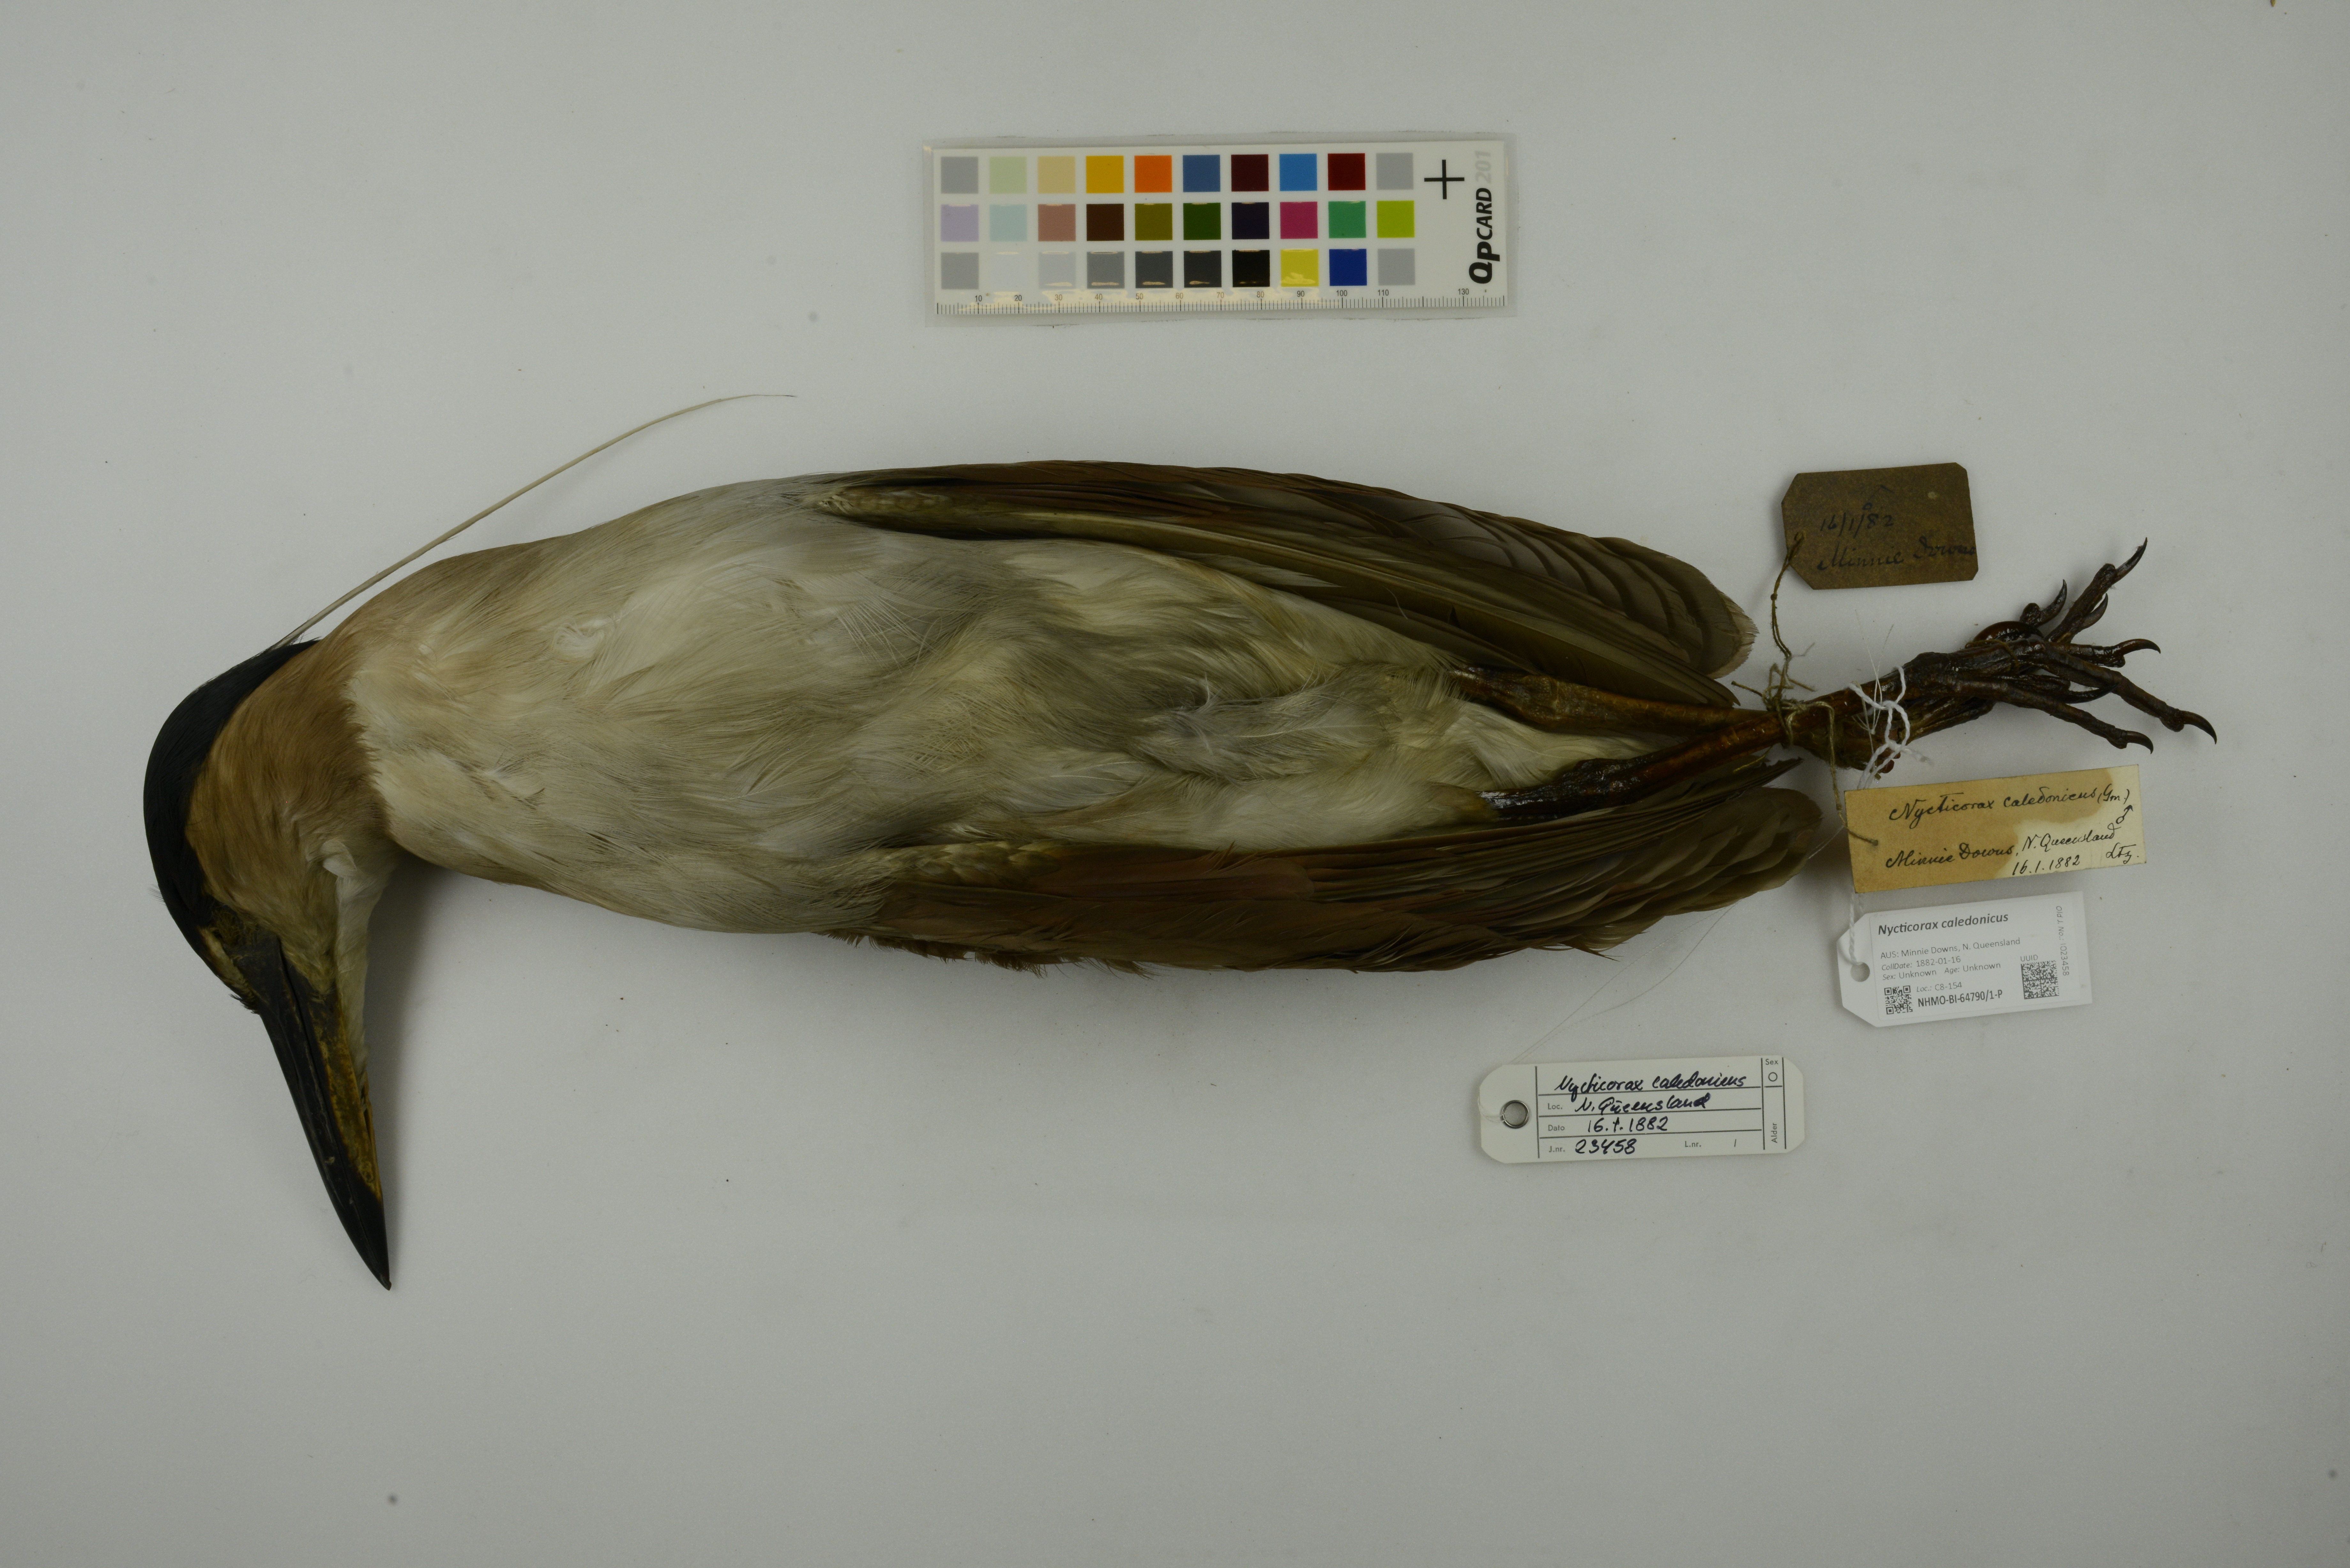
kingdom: Animalia
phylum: Chordata
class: Aves
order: Pelecaniformes
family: Ardeidae
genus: Nycticorax
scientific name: Nycticorax caledonicus
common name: Rufous night-heron
